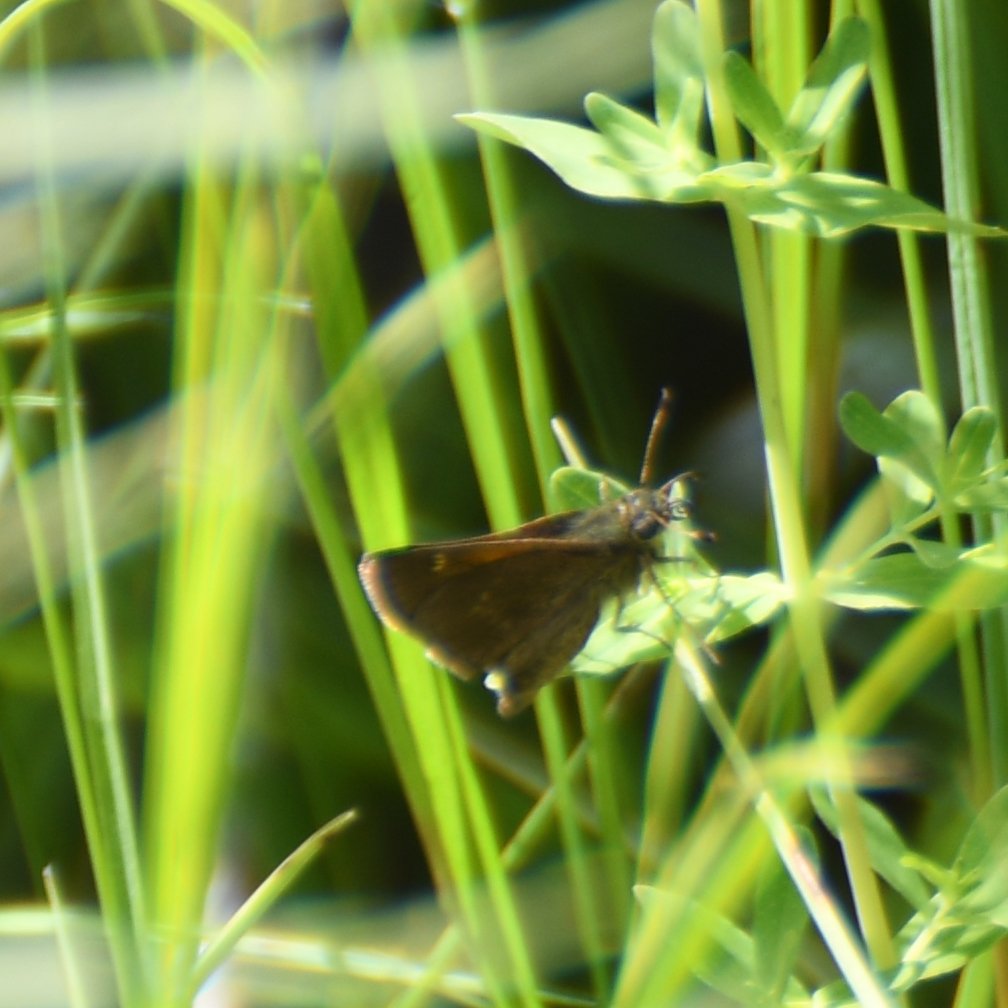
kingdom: Animalia
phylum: Arthropoda
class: Insecta
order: Lepidoptera
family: Hesperiidae
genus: Polites
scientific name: Polites themistocles
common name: Tawny-edged Skipper
